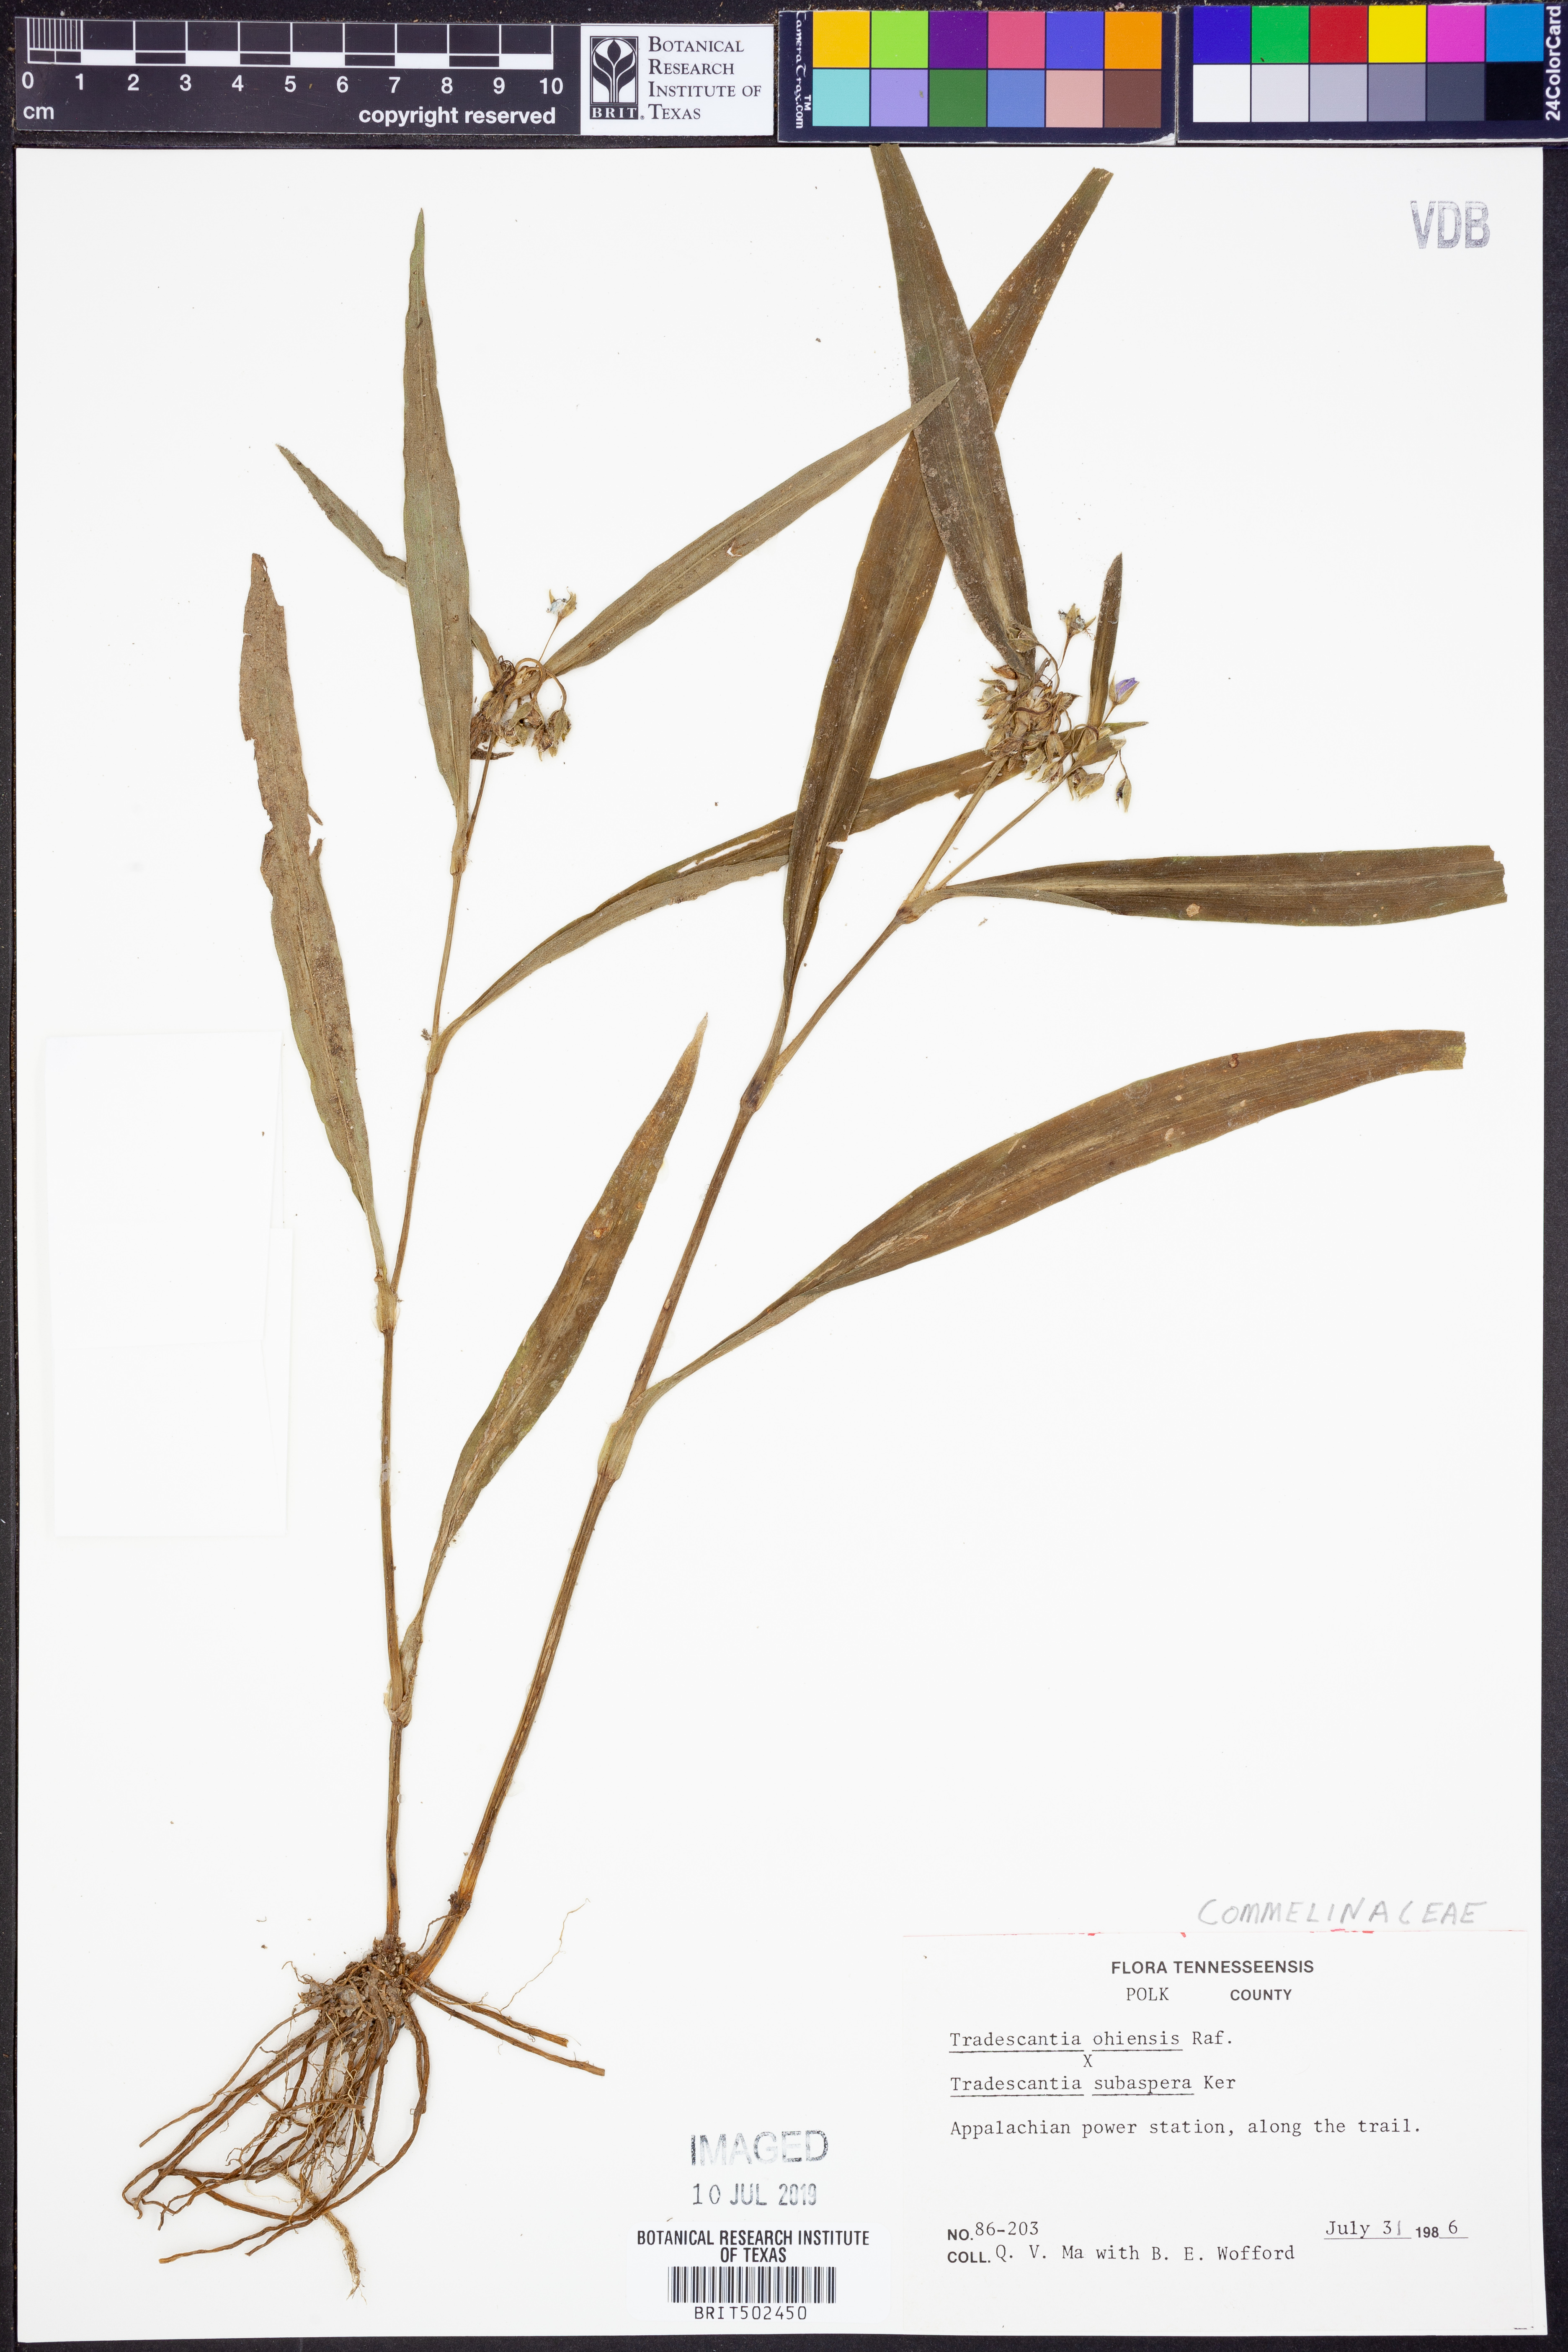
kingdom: Plantae
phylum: Tracheophyta
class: Liliopsida
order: Commelinales
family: Commelinaceae
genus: Tradescantia
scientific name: Tradescantia ohiensis
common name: Ohio spiderwort
